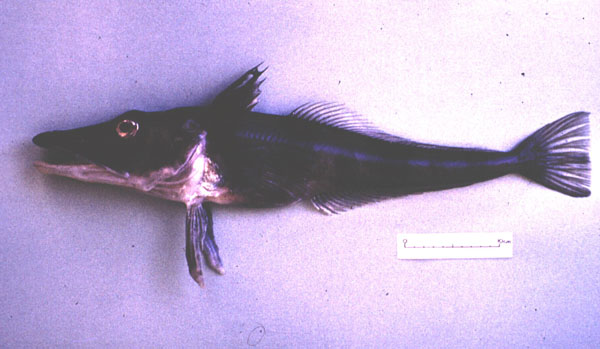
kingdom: Animalia
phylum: Chordata
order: Perciformes
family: Channichthyidae
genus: Chaenocephalus
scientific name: Chaenocephalus aceratus
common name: Blackfin icefish
